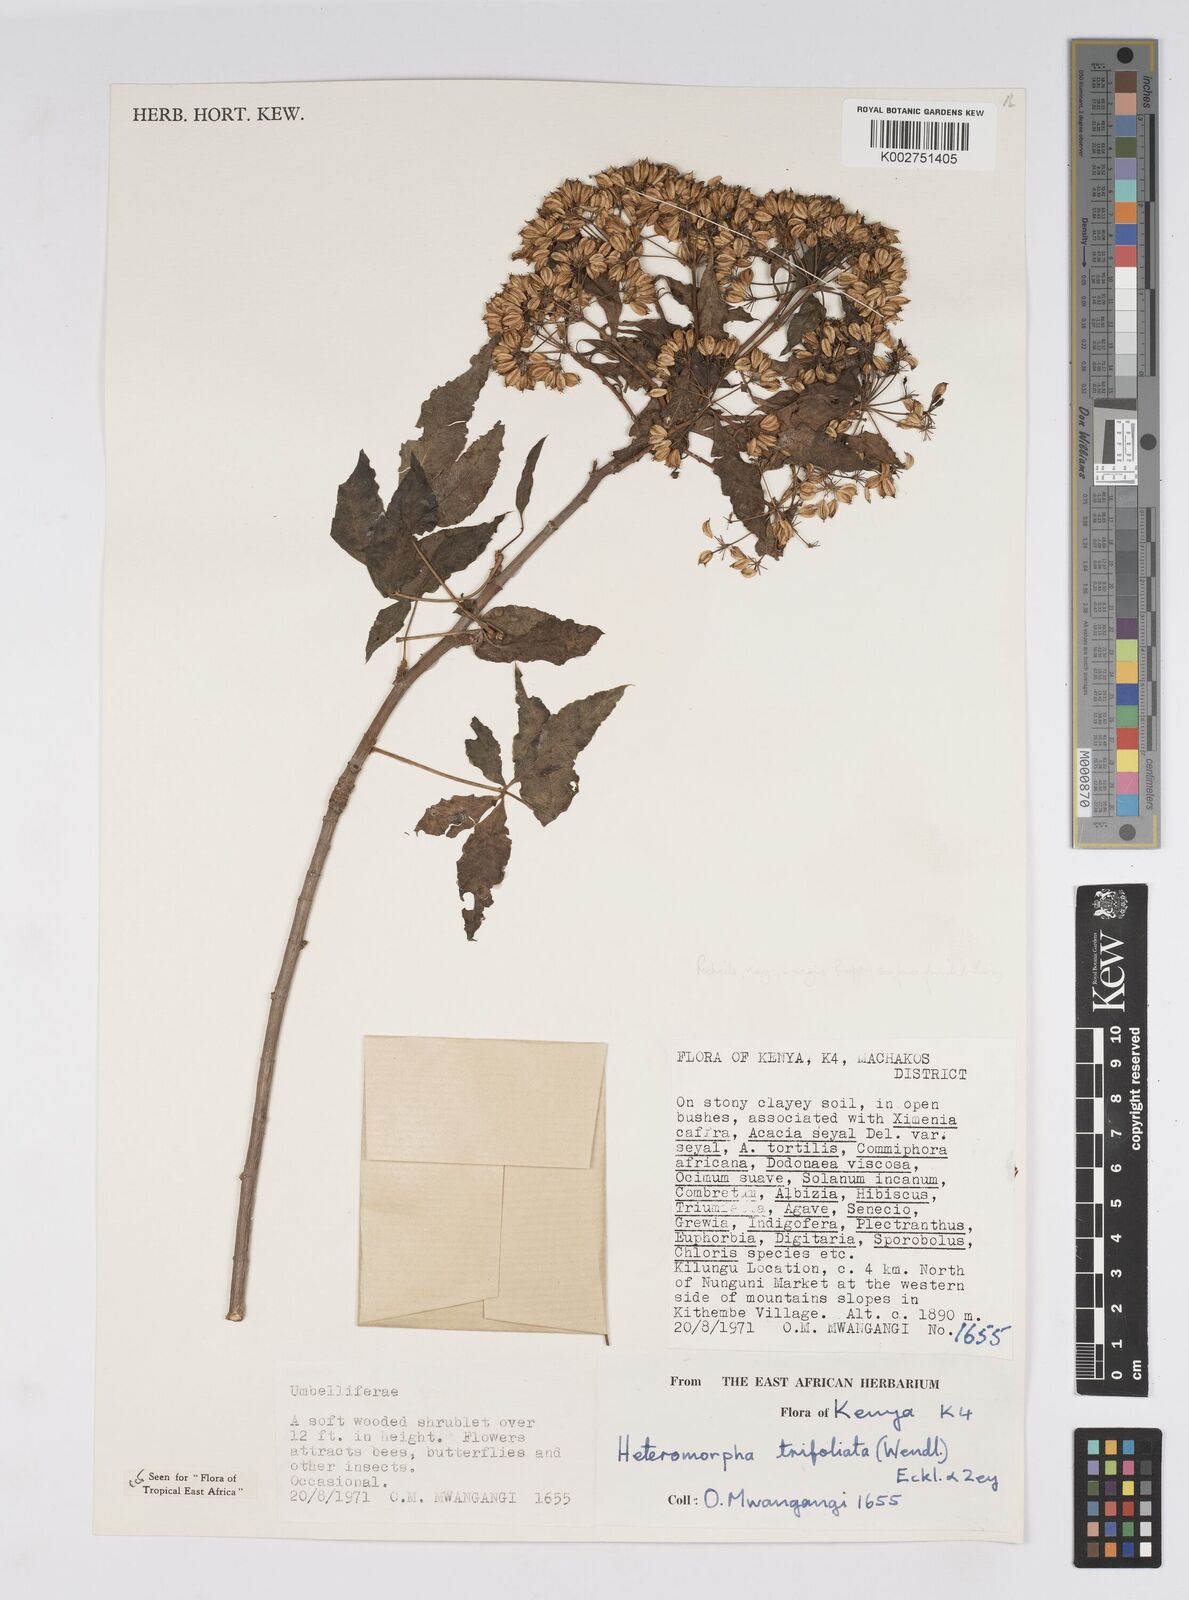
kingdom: Plantae
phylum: Tracheophyta
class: Magnoliopsida
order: Apiales
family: Apiaceae
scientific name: Apiaceae
